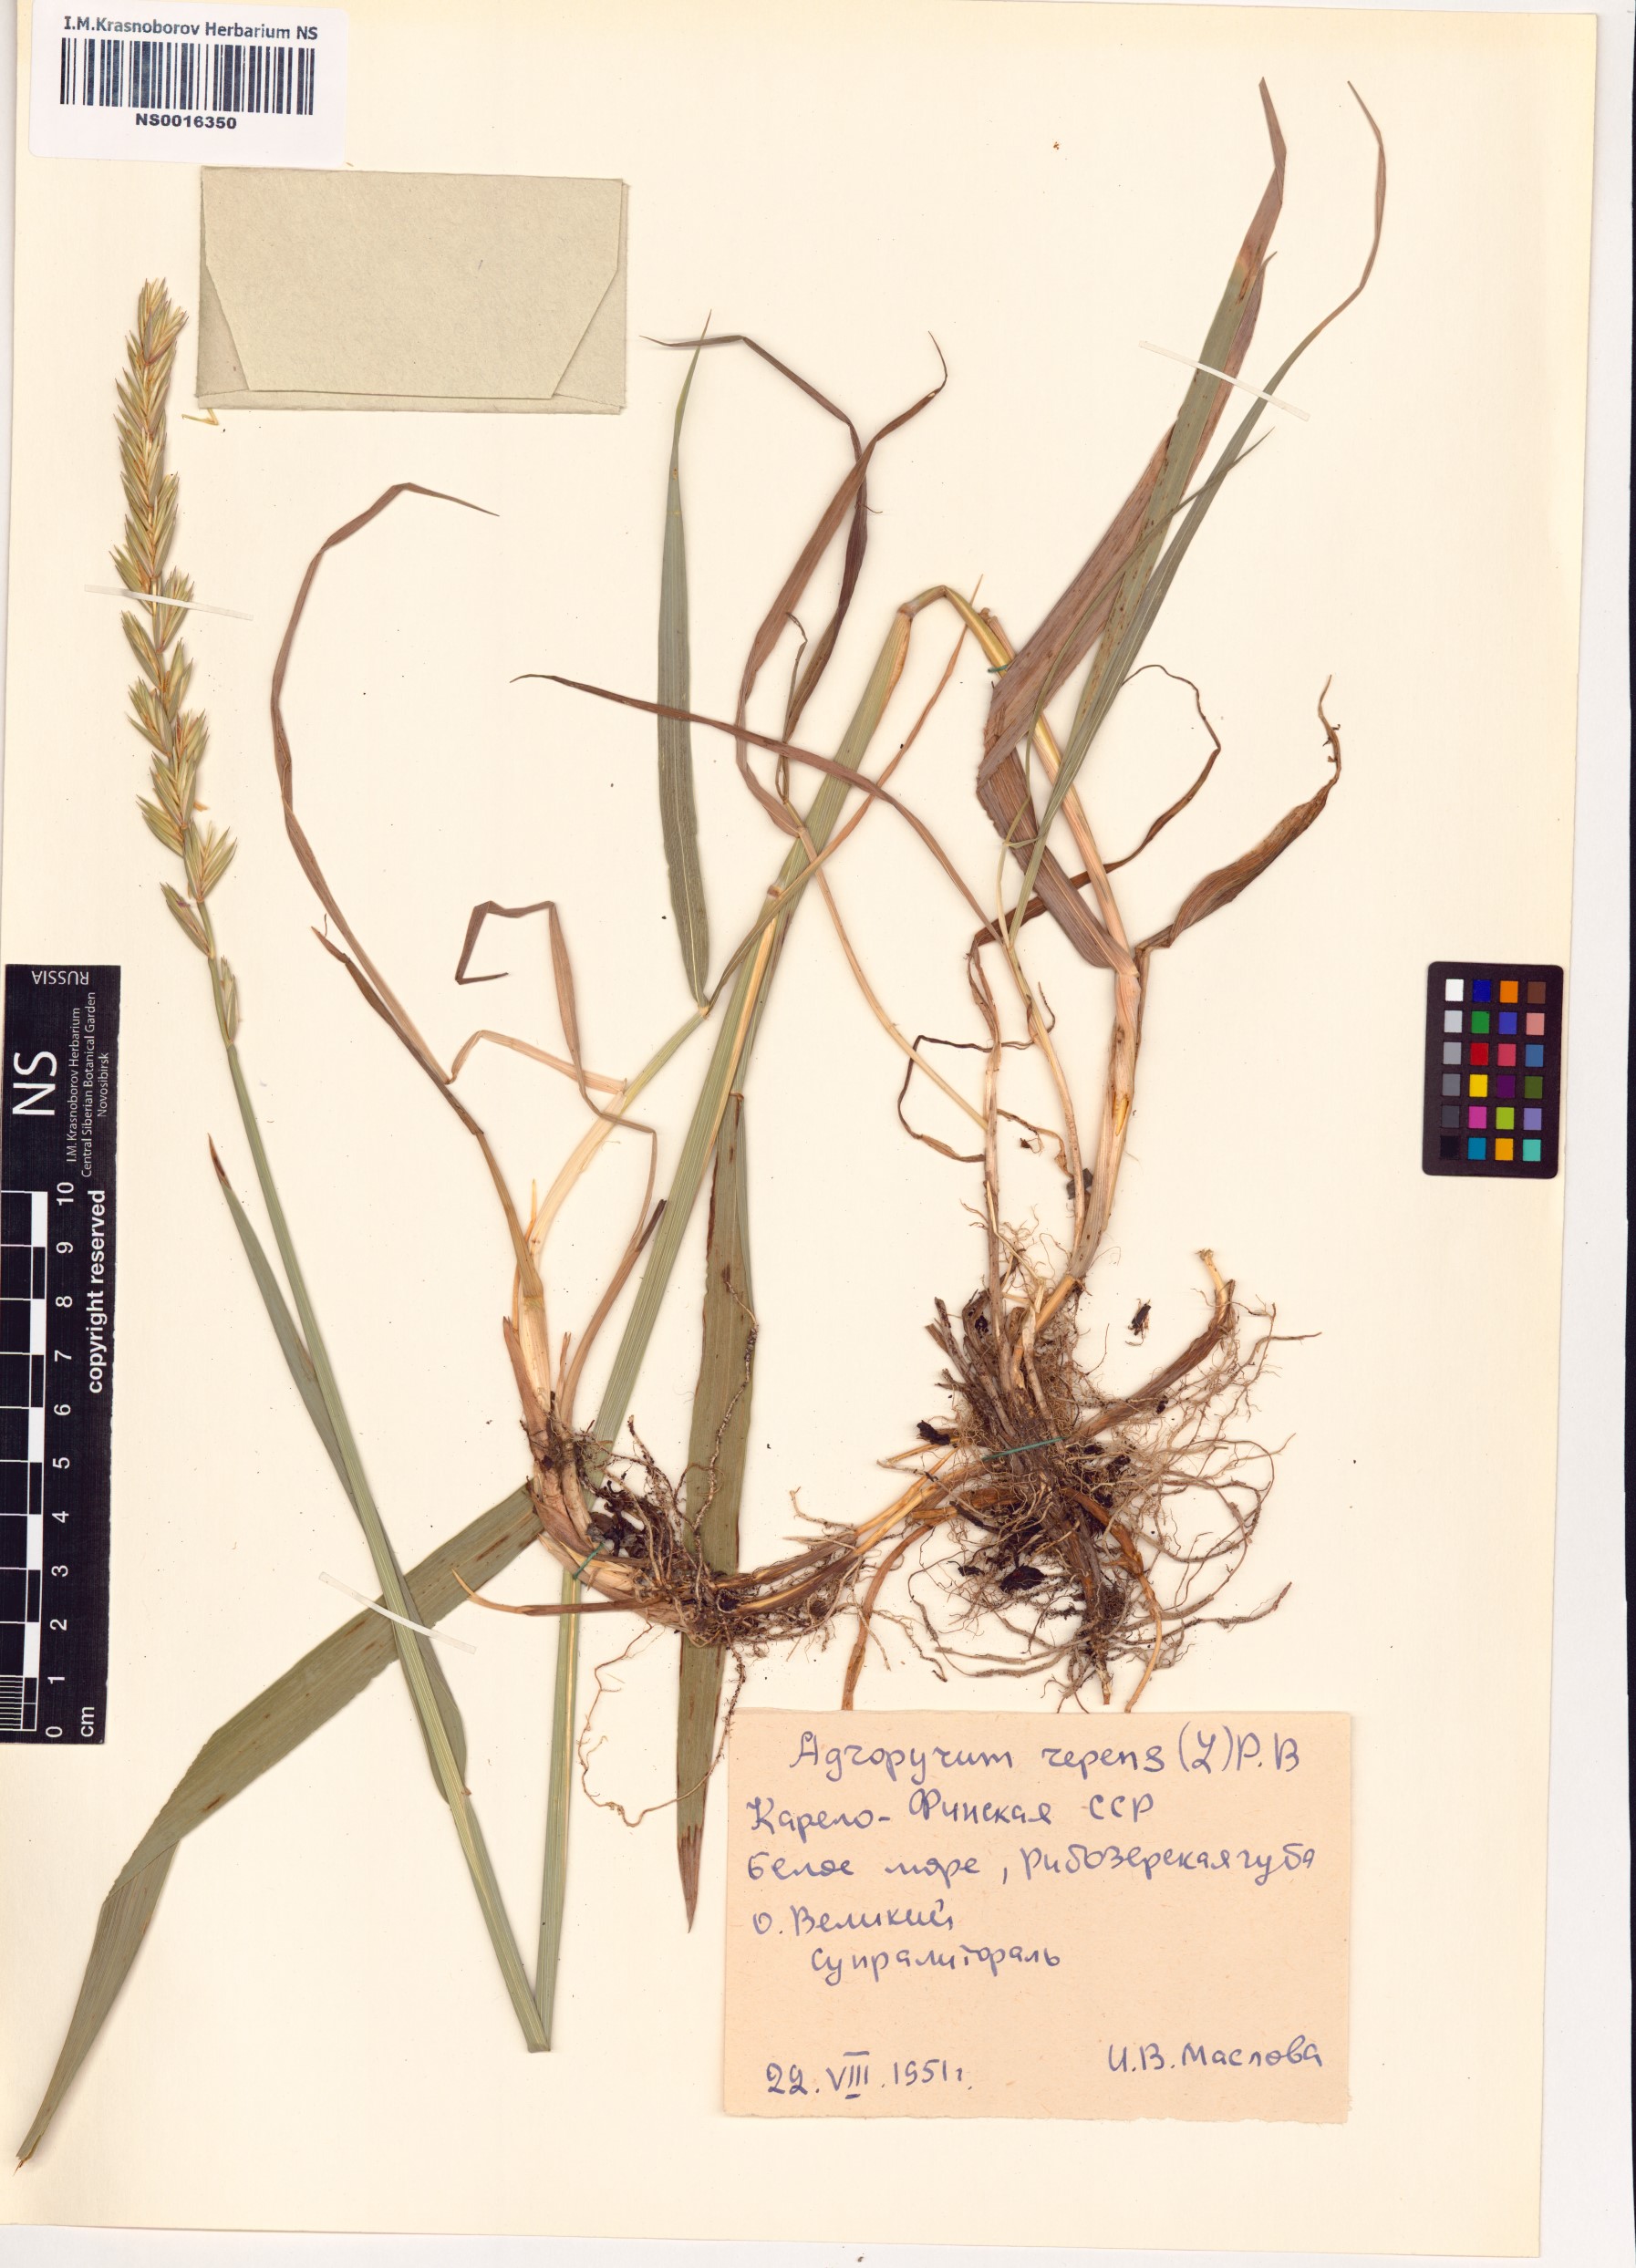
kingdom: Plantae
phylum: Tracheophyta
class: Liliopsida
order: Poales
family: Poaceae
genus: Elymus
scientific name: Elymus repens
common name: Quackgrass
